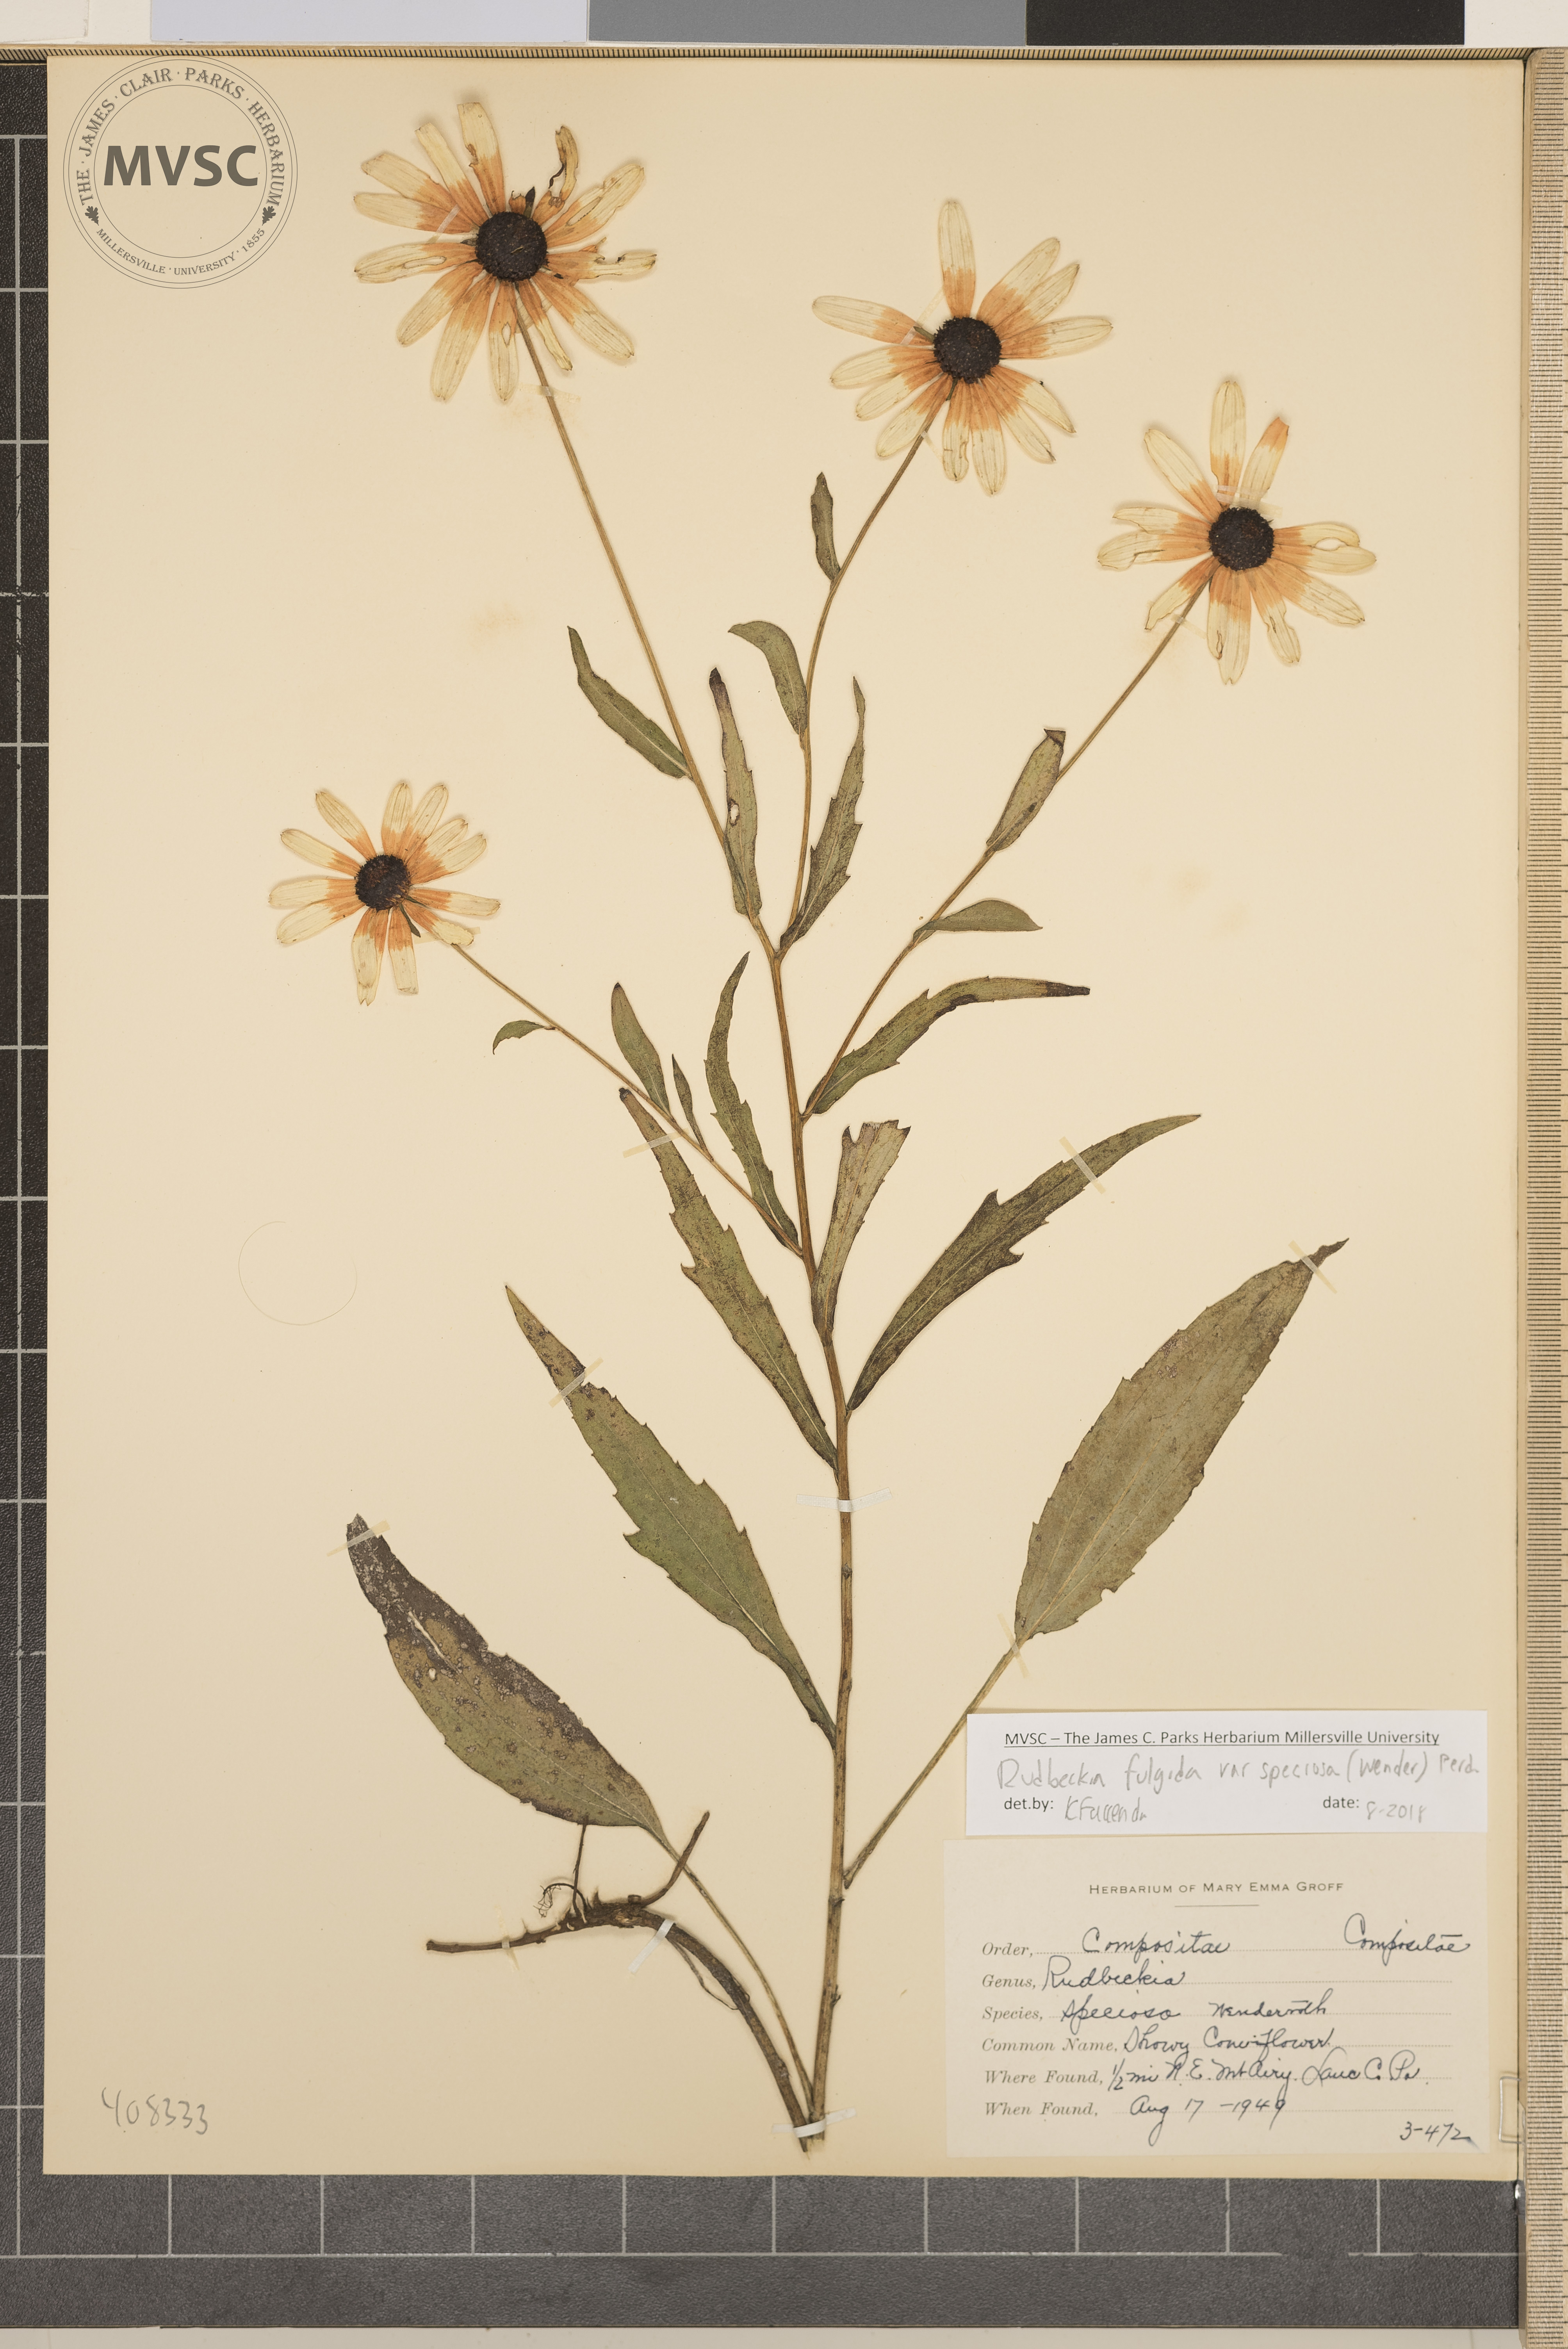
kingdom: Plantae
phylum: Tracheophyta
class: Magnoliopsida
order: Asterales
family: Asteraceae
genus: Rudbeckia
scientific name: Rudbeckia fulgida
